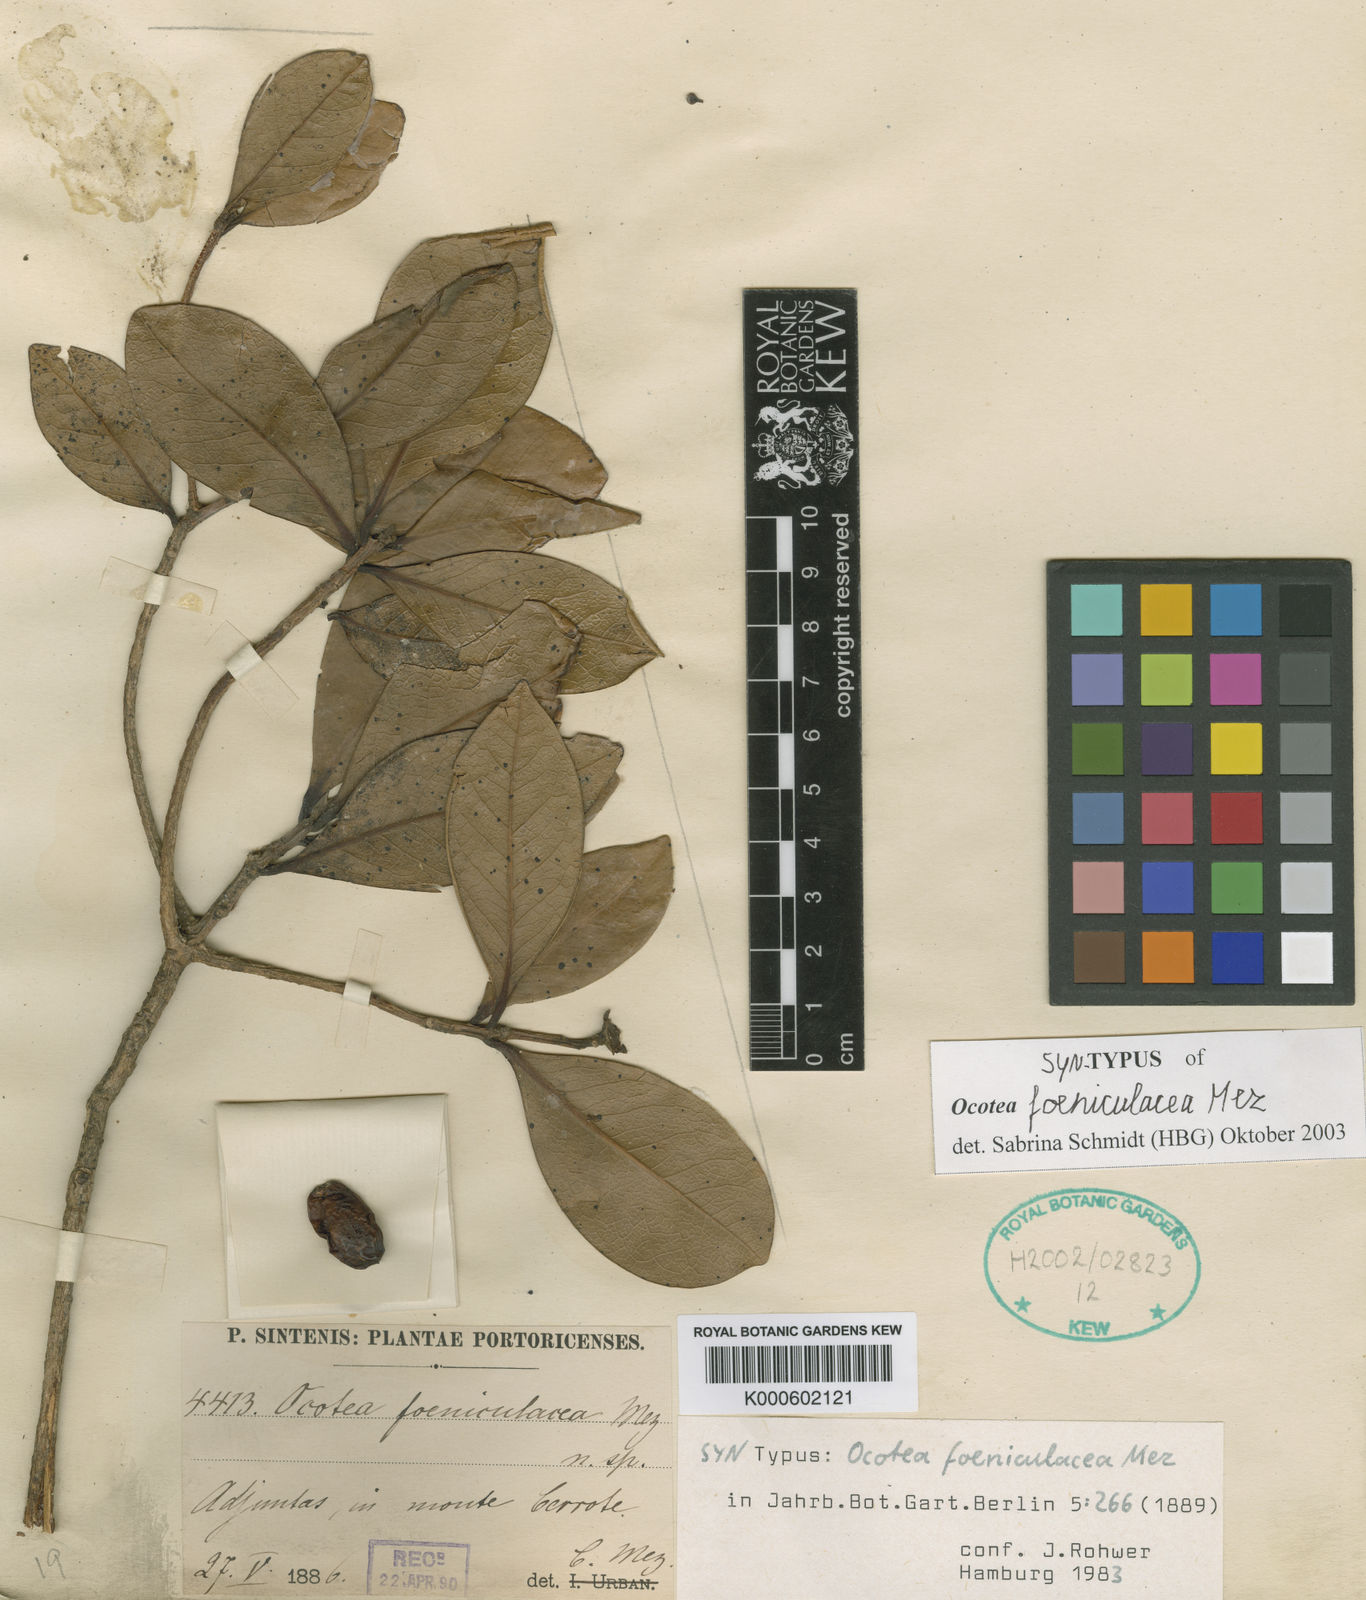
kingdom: Plantae
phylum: Tracheophyta
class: Magnoliopsida
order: Laurales
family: Lauraceae
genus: Ocotea
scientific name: Ocotea foeniculacea
